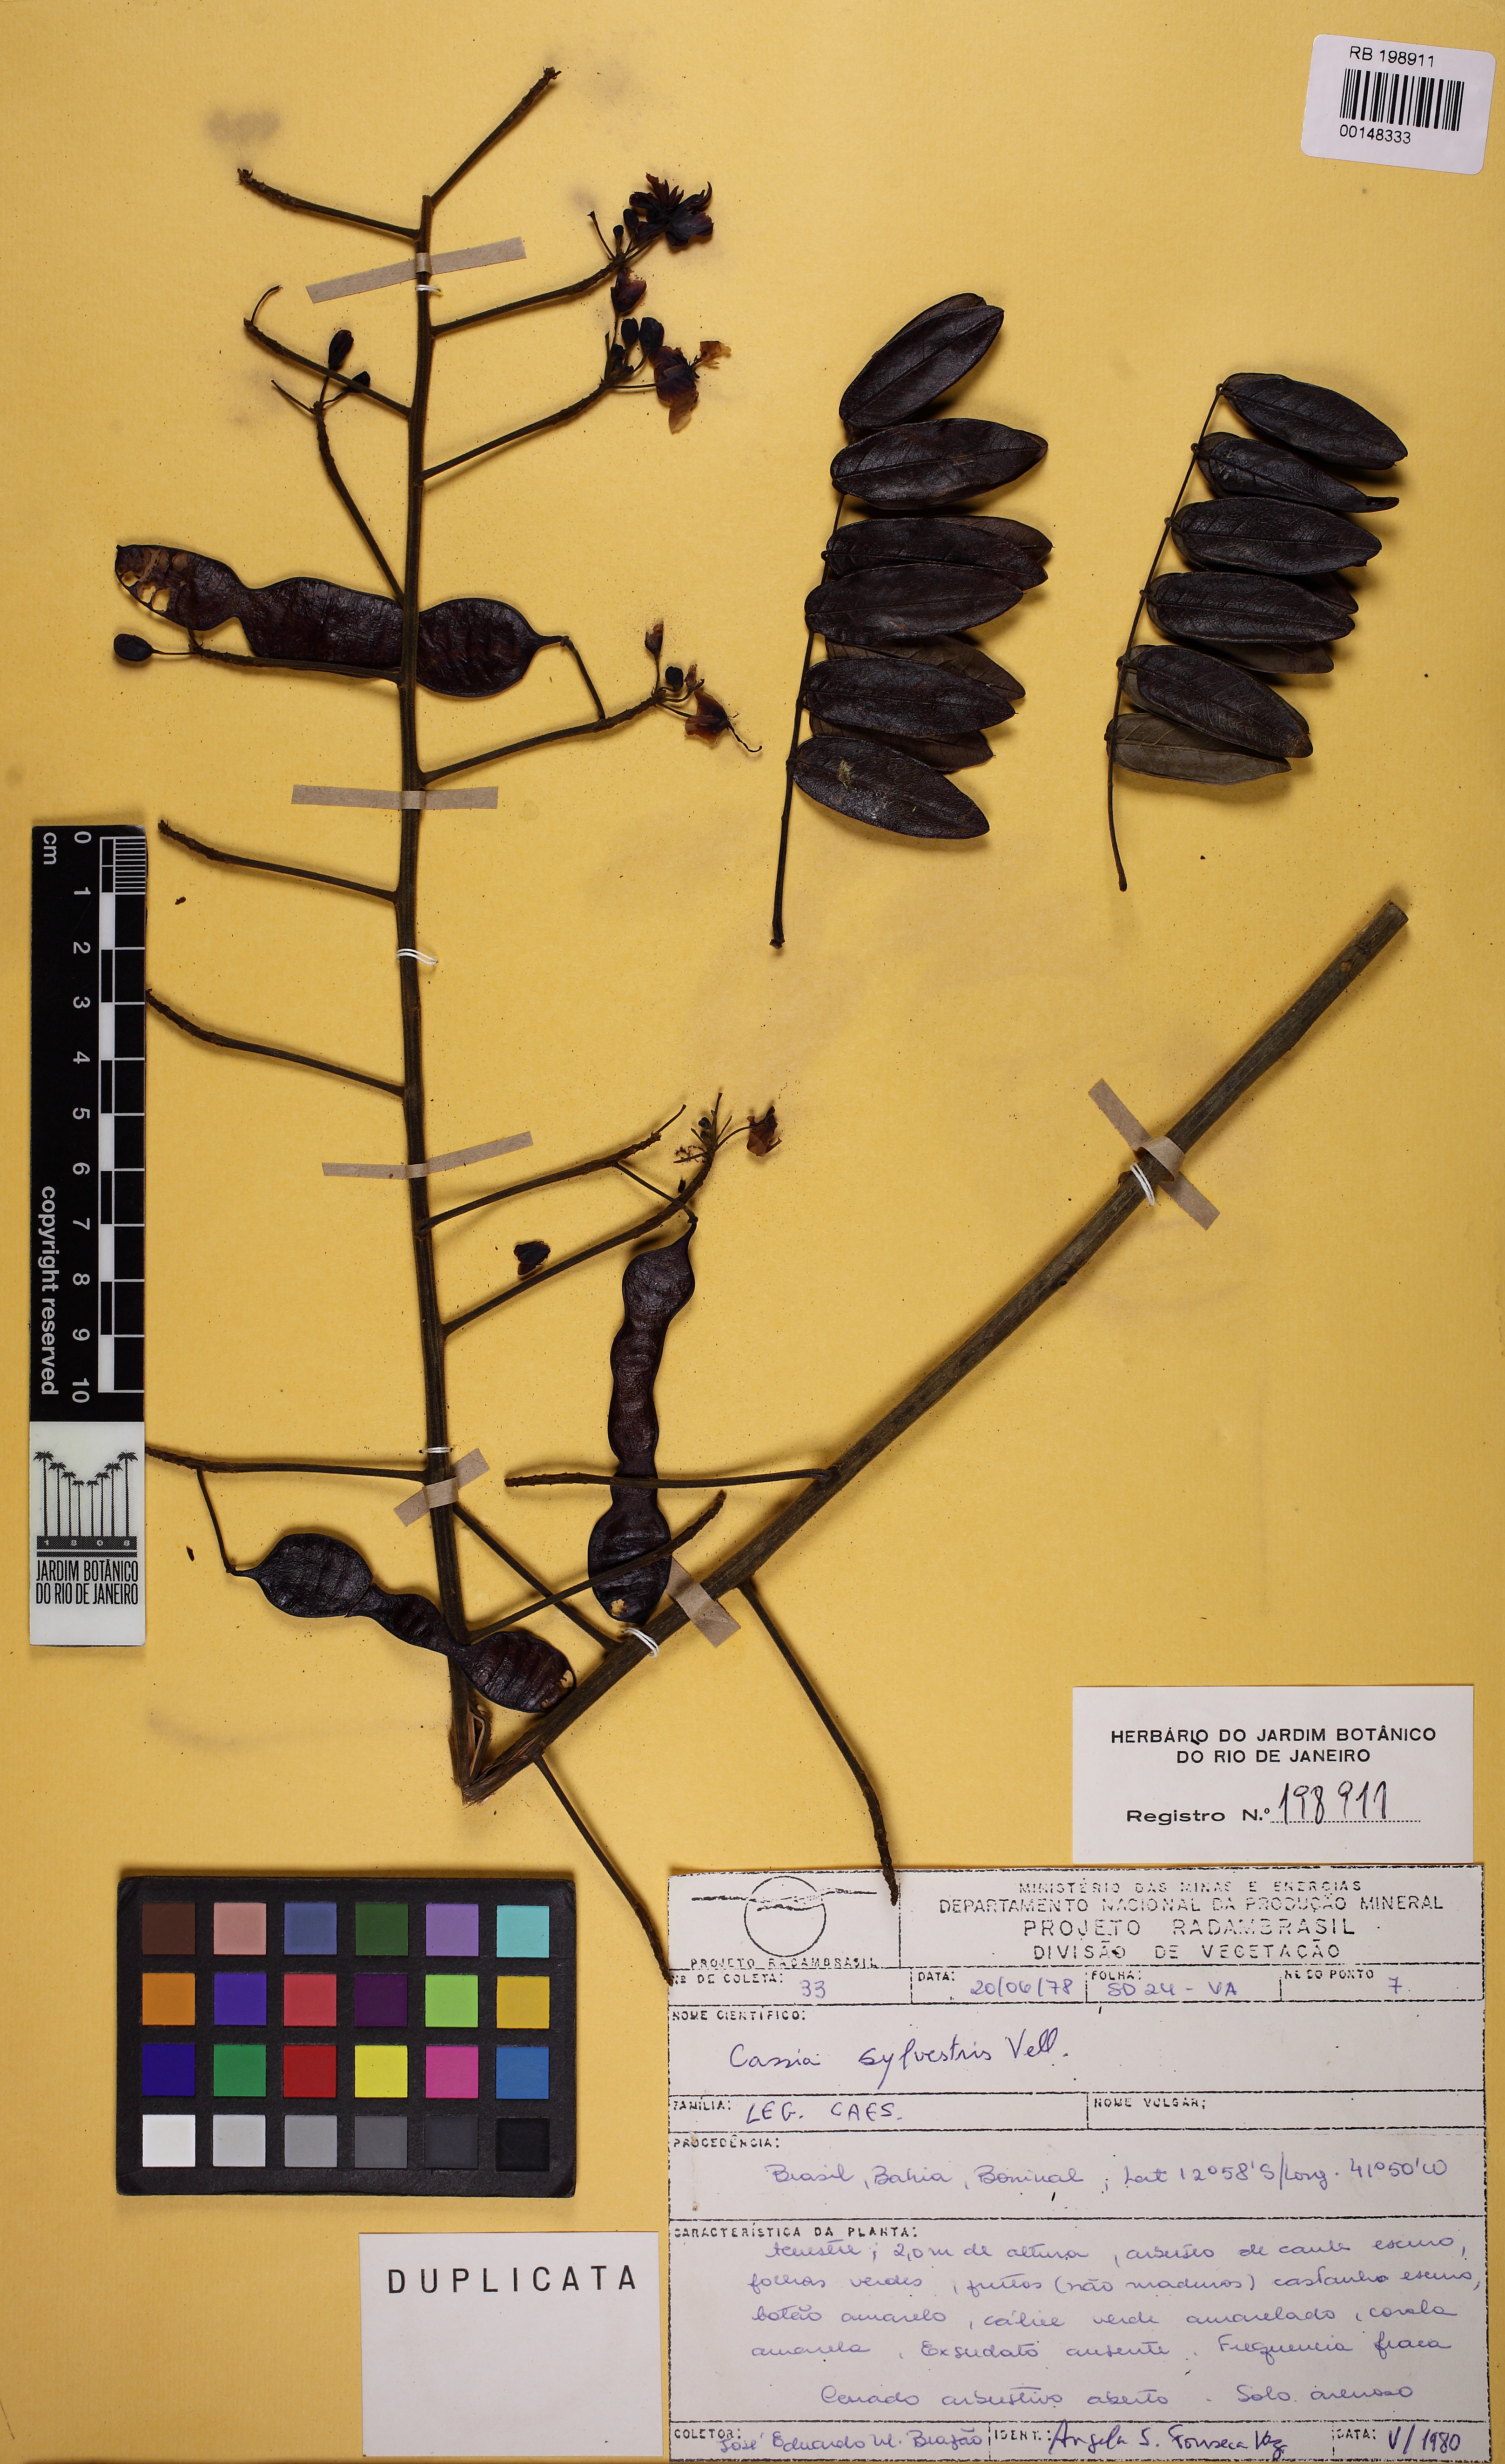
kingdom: Plantae
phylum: Tracheophyta
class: Magnoliopsida
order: Fabales
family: Fabaceae
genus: Senna
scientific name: Senna silvestris
